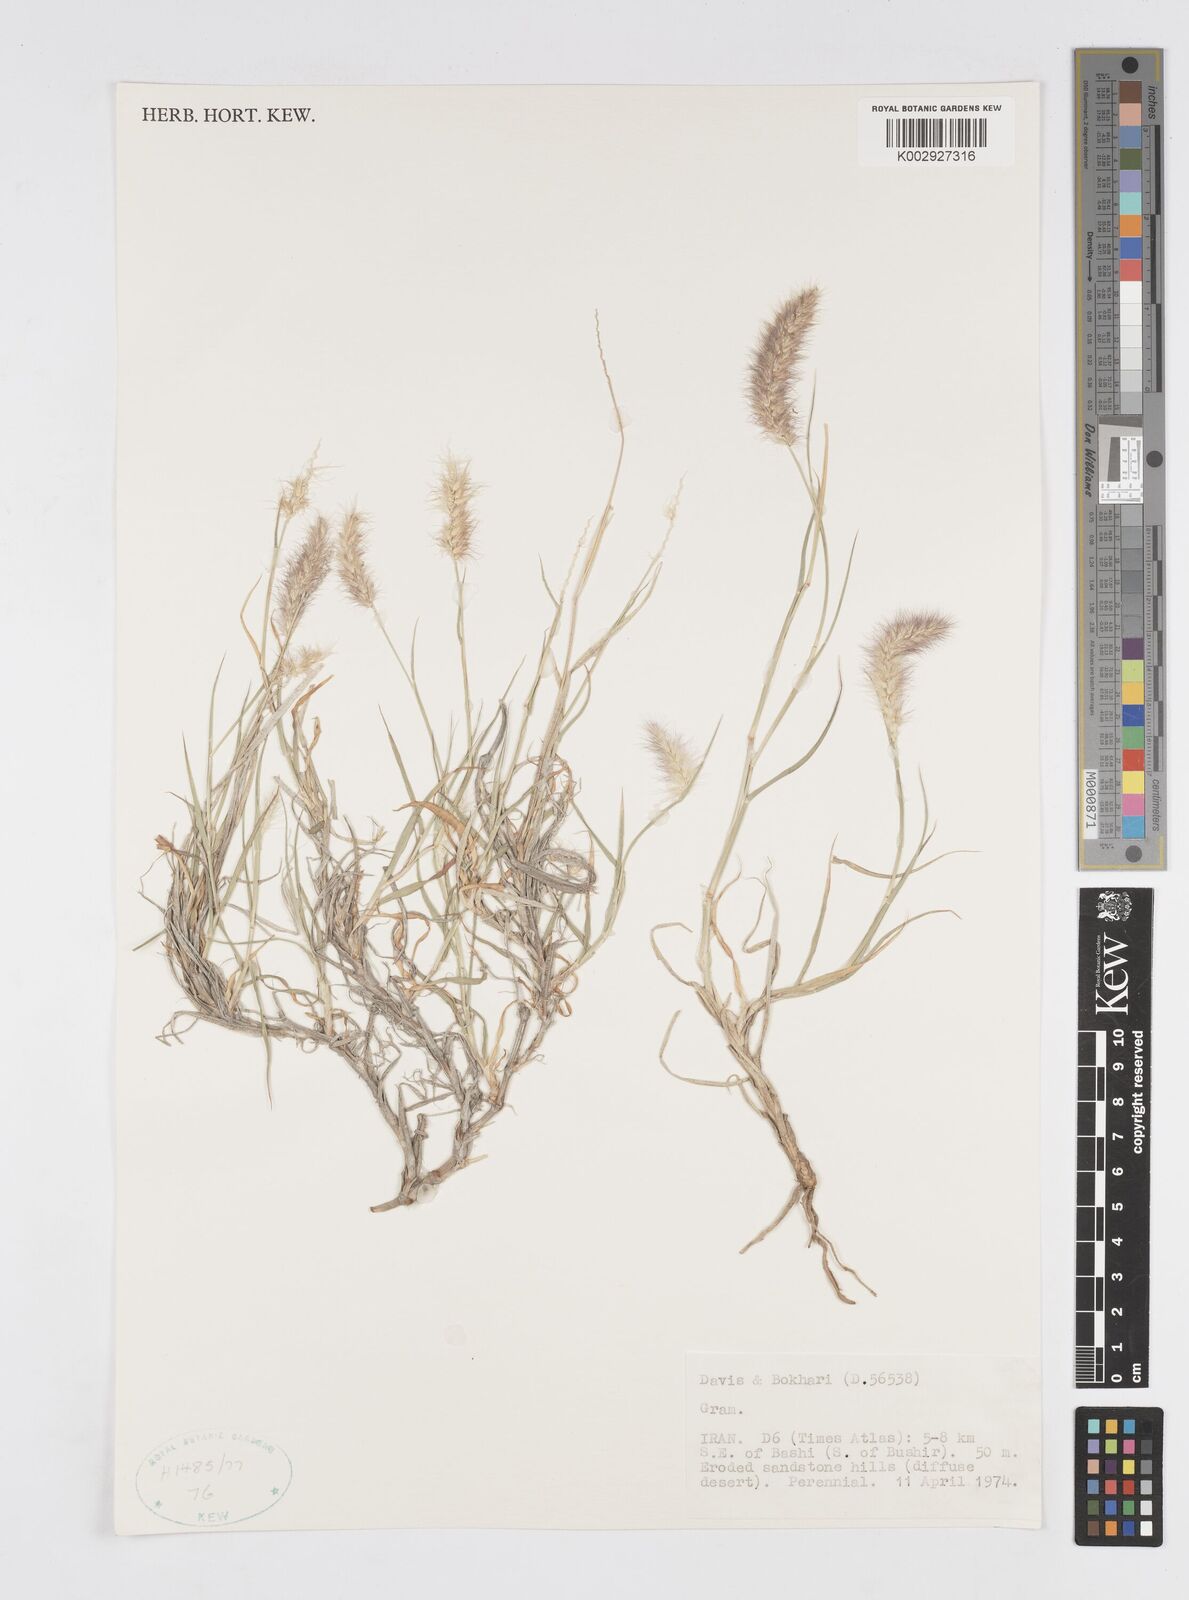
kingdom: Plantae
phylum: Tracheophyta
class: Liliopsida
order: Poales
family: Poaceae
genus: Cenchrus
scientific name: Cenchrus ciliaris
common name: Buffelgrass
